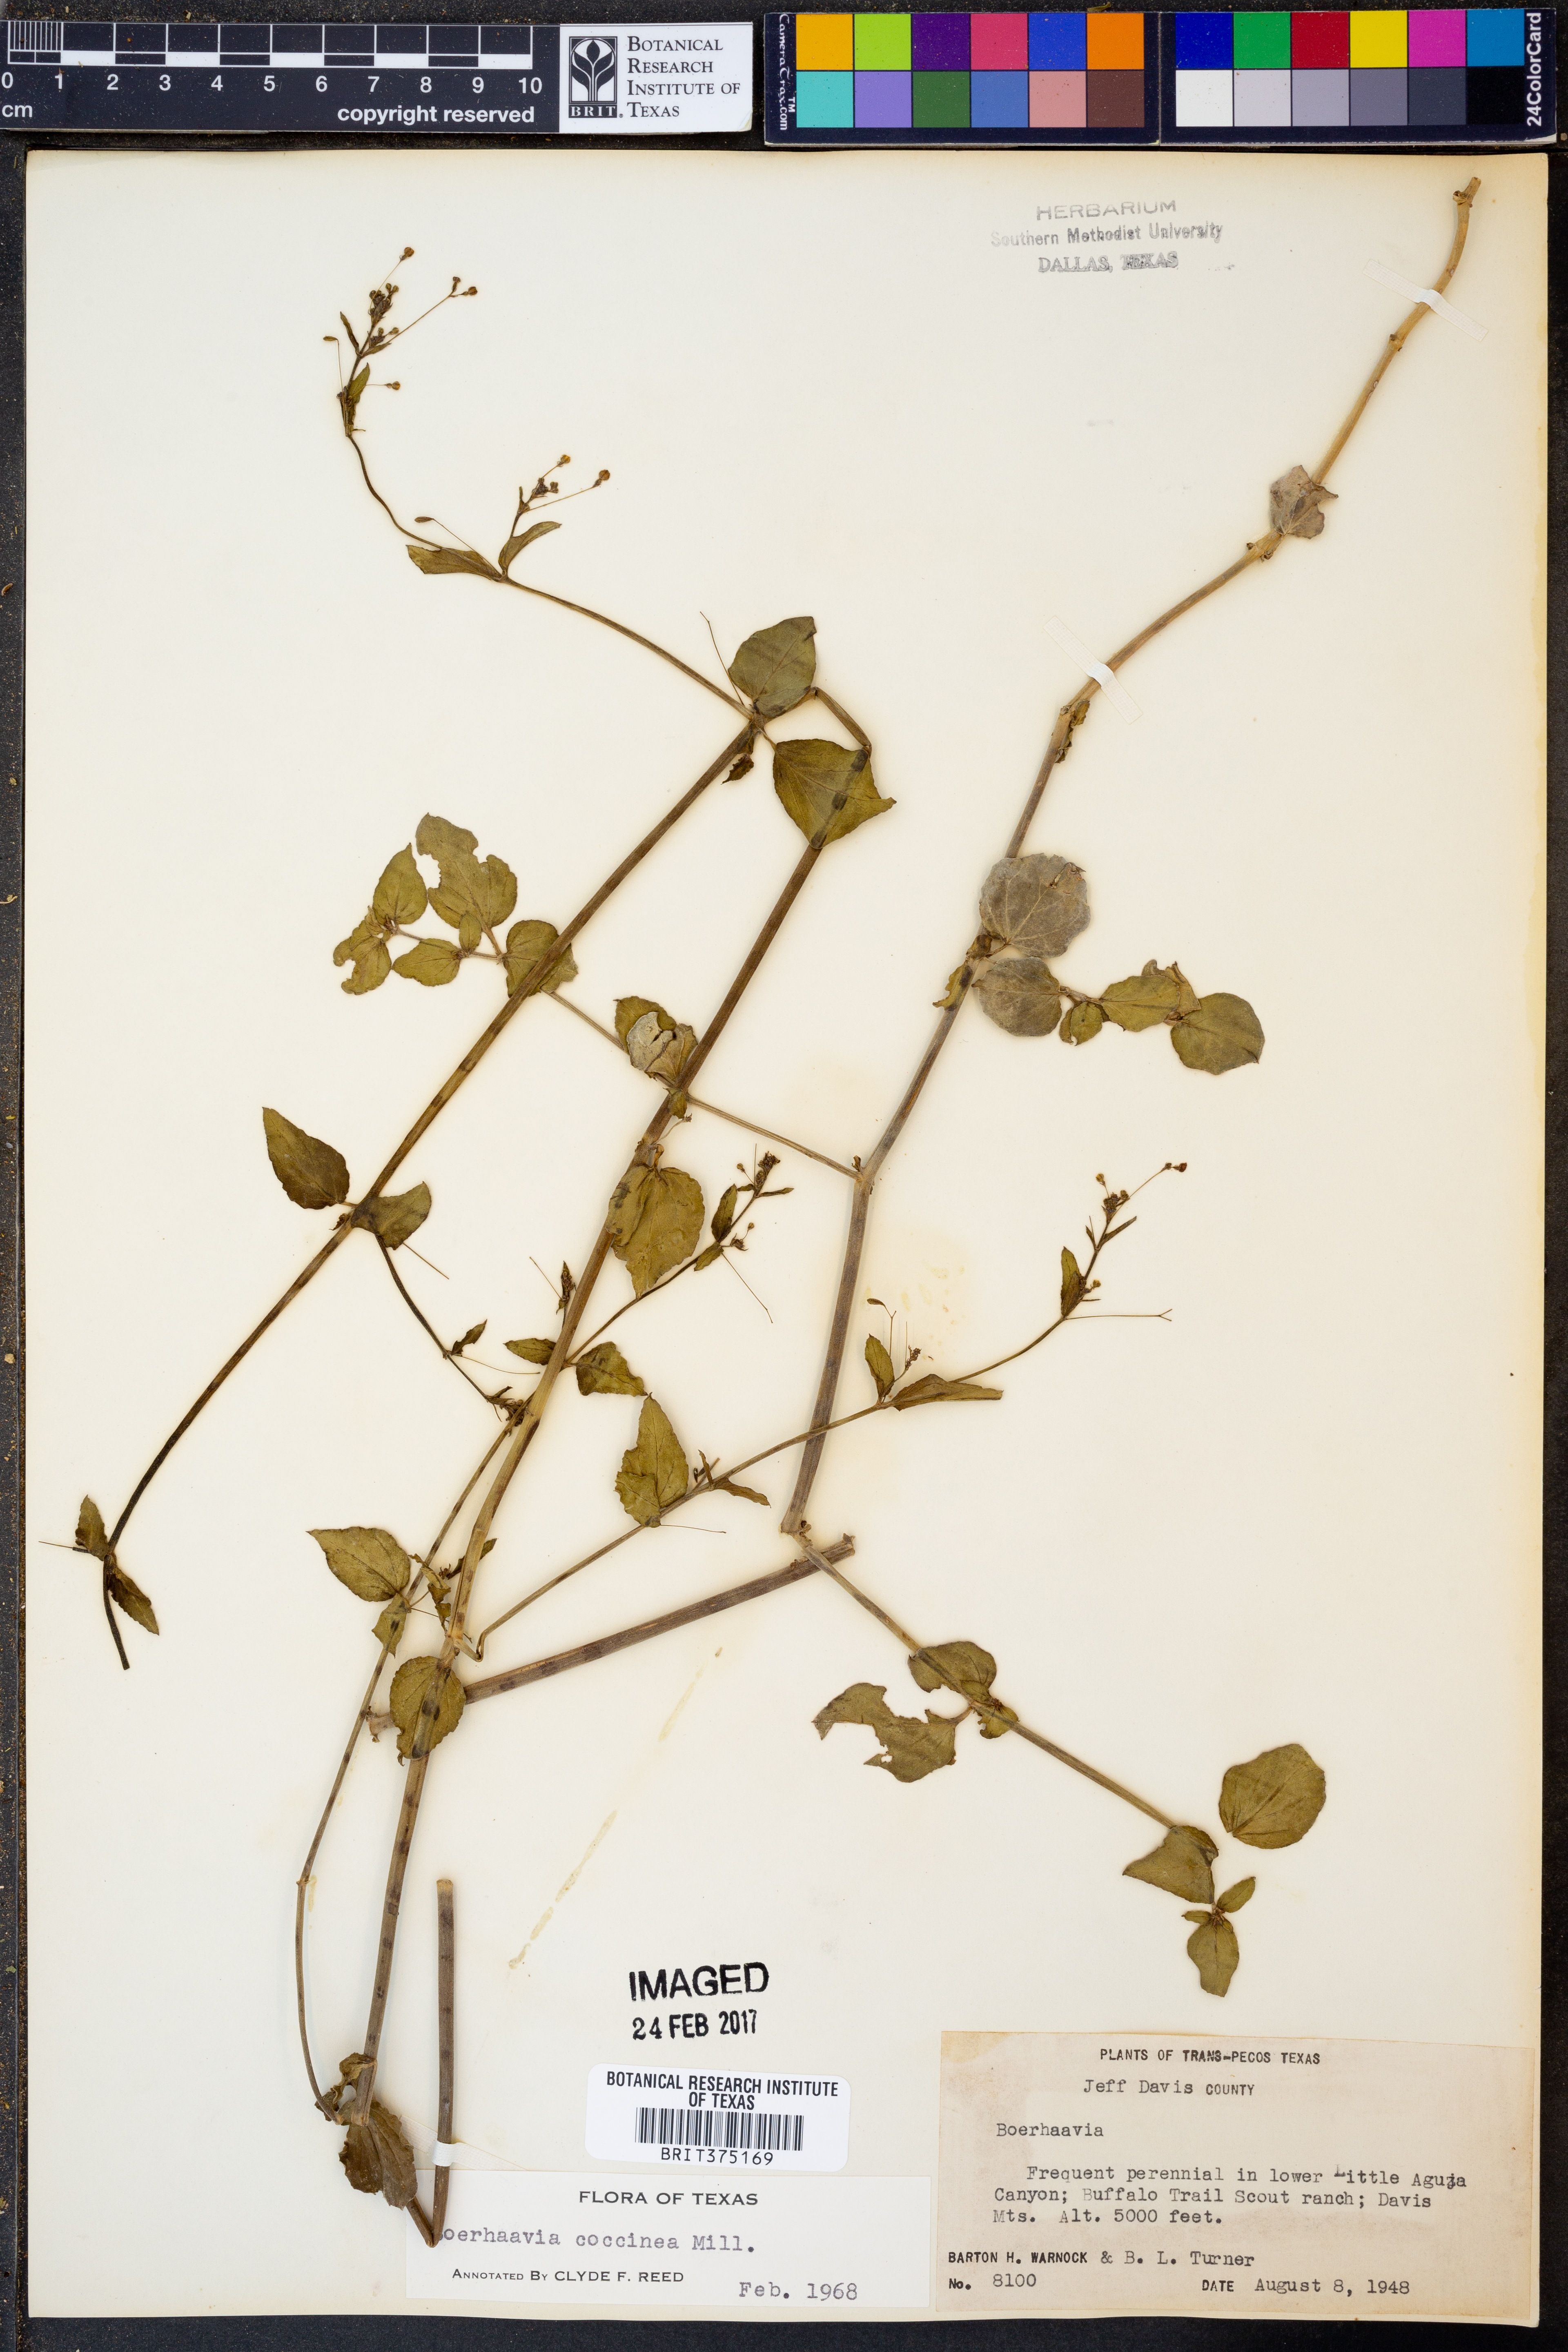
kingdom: Plantae
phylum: Tracheophyta
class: Magnoliopsida
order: Caryophyllales
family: Nyctaginaceae
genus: Boerhavia
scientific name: Boerhavia coccinea
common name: Scarlet spiderling
